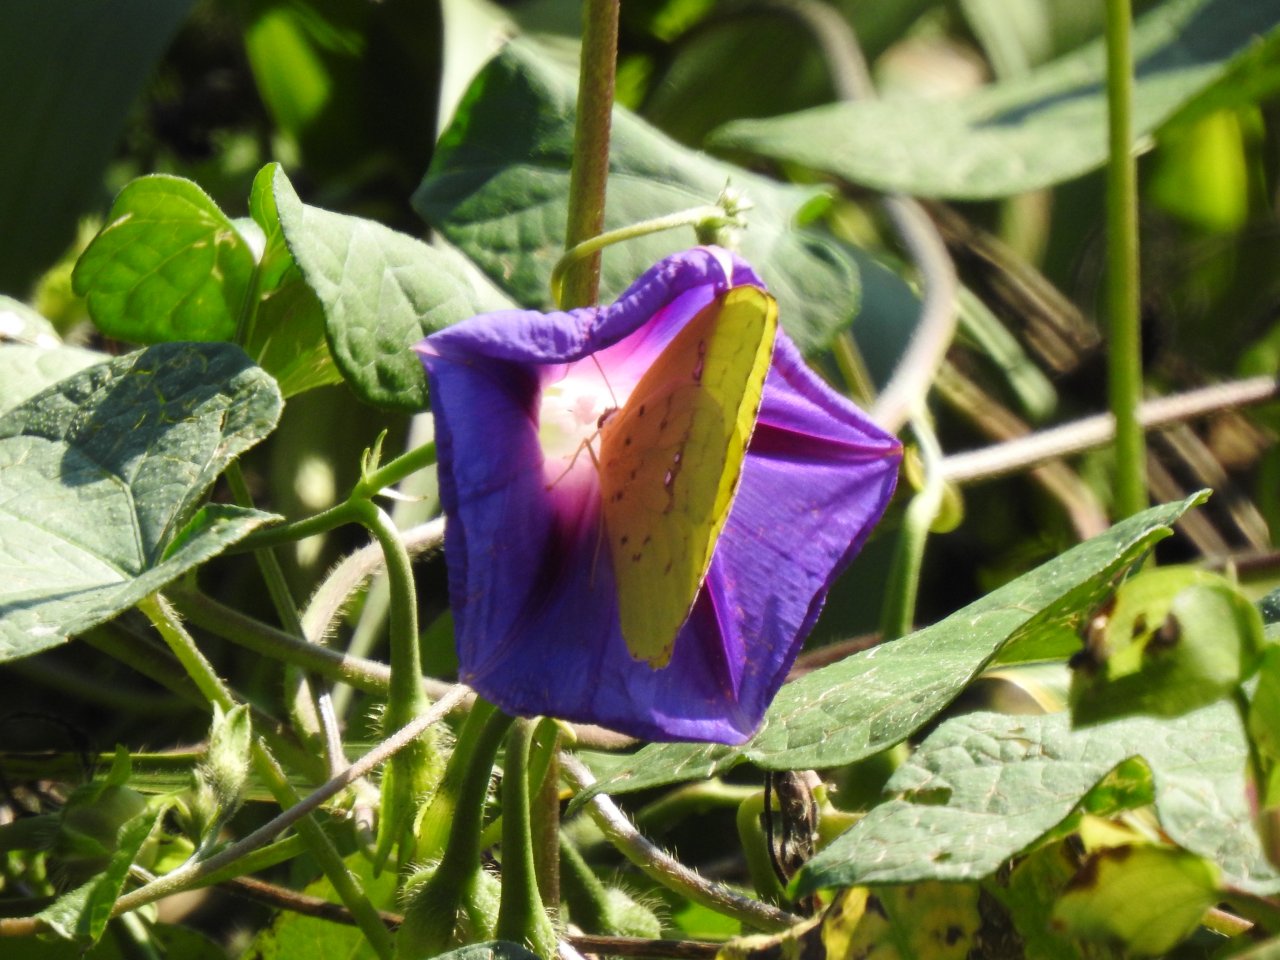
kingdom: Animalia
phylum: Arthropoda
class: Insecta
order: Lepidoptera
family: Pieridae
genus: Phoebis
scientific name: Phoebis sennae
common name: Cloudless Sulphur
